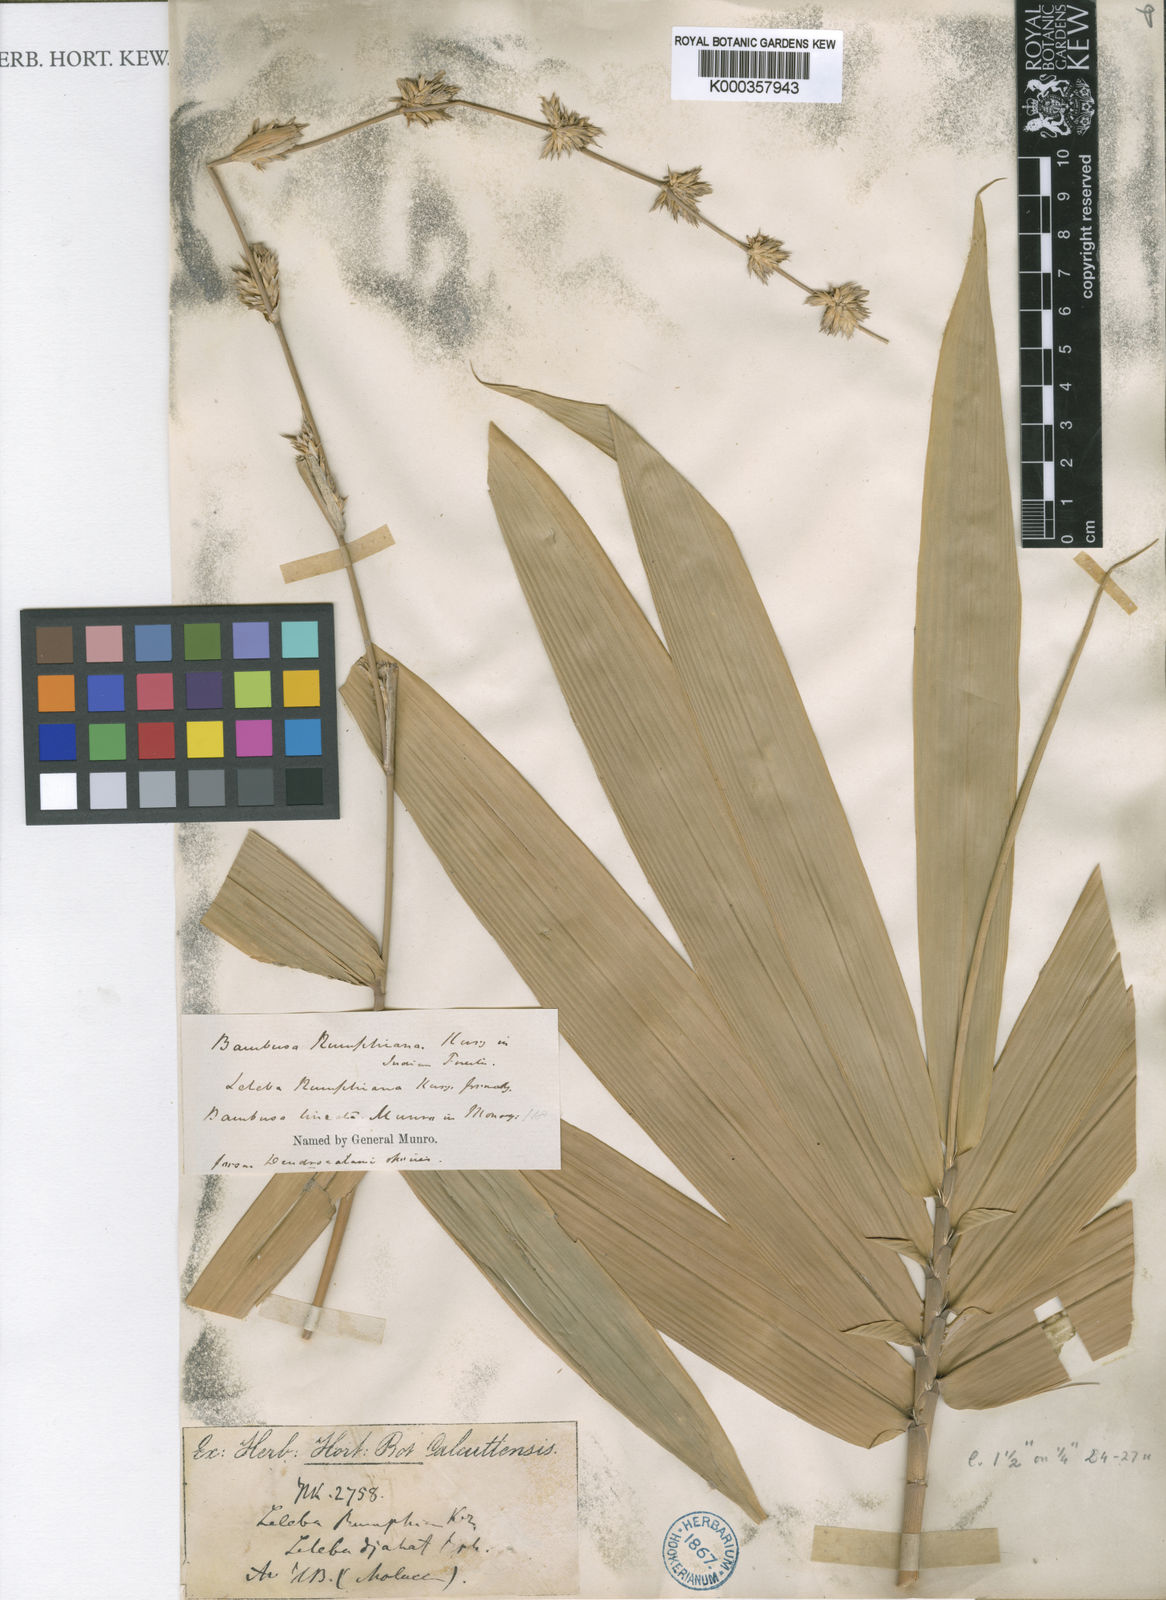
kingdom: Plantae
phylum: Tracheophyta
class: Liliopsida
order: Poales
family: Poaceae
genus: Neololeba
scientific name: Neololeba amahussana
